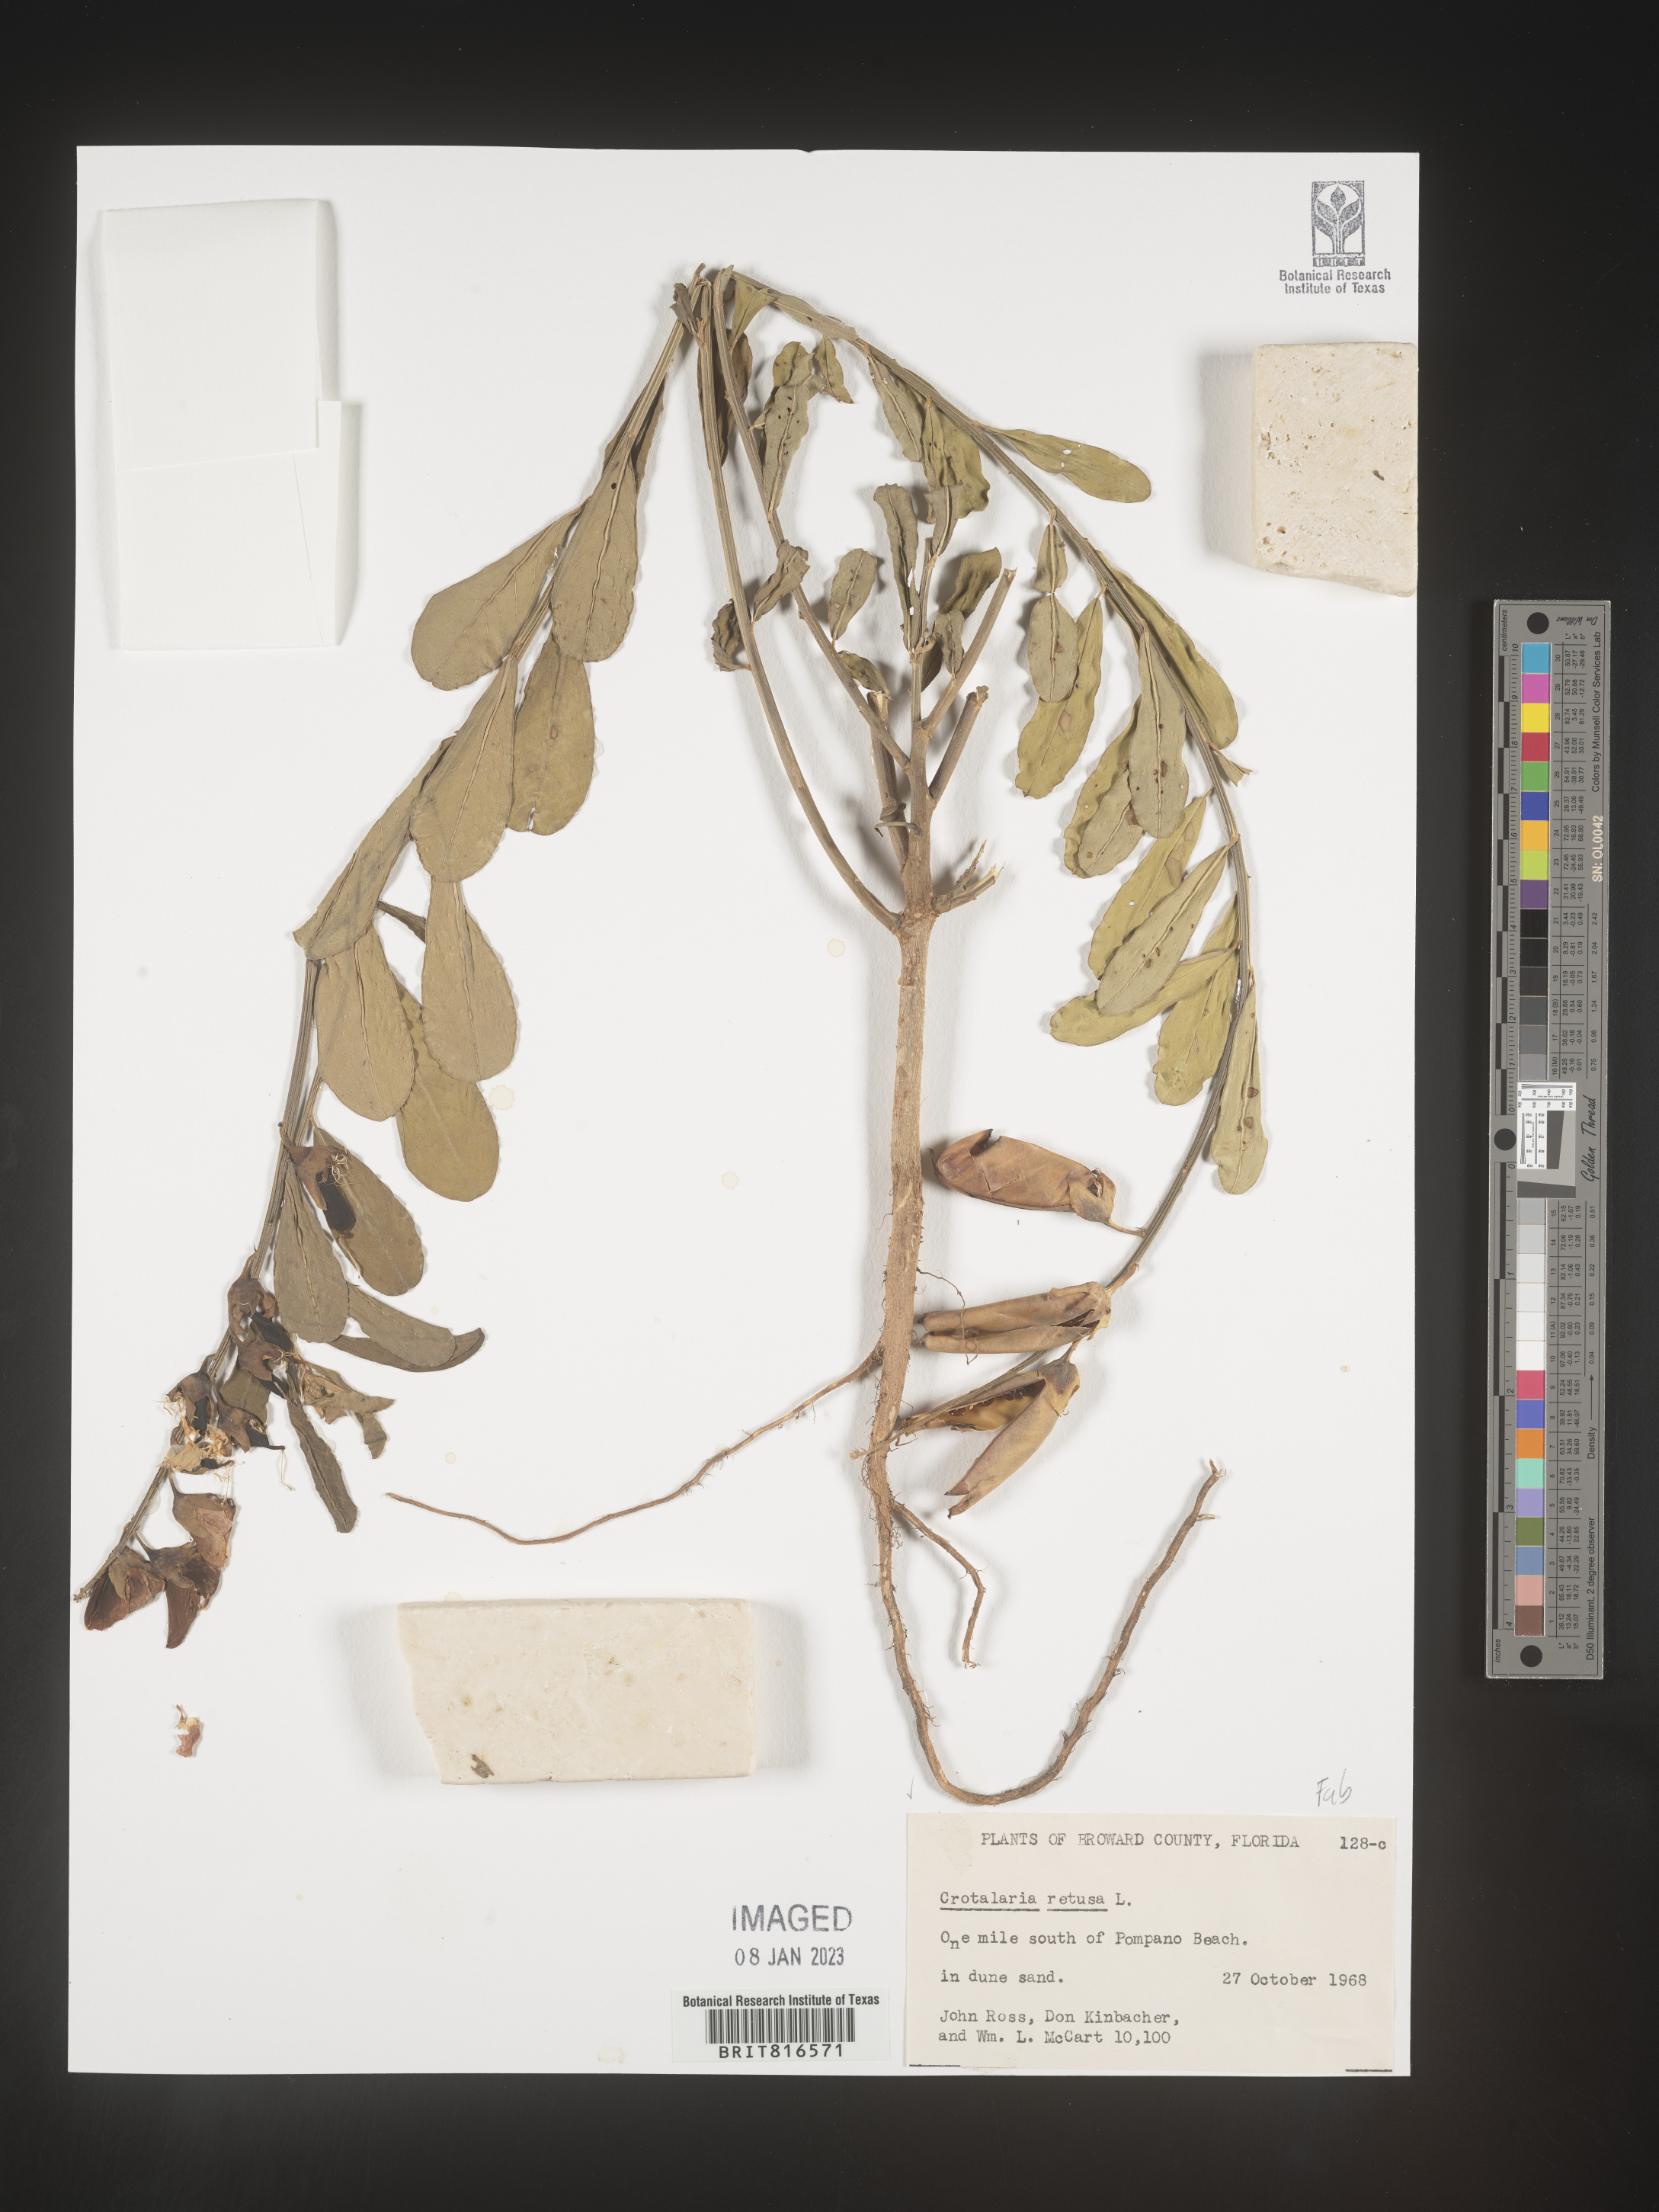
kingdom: Plantae
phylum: Tracheophyta
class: Magnoliopsida
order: Fabales
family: Fabaceae
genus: Crotalaria
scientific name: Crotalaria retusa
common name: Rattleweed
